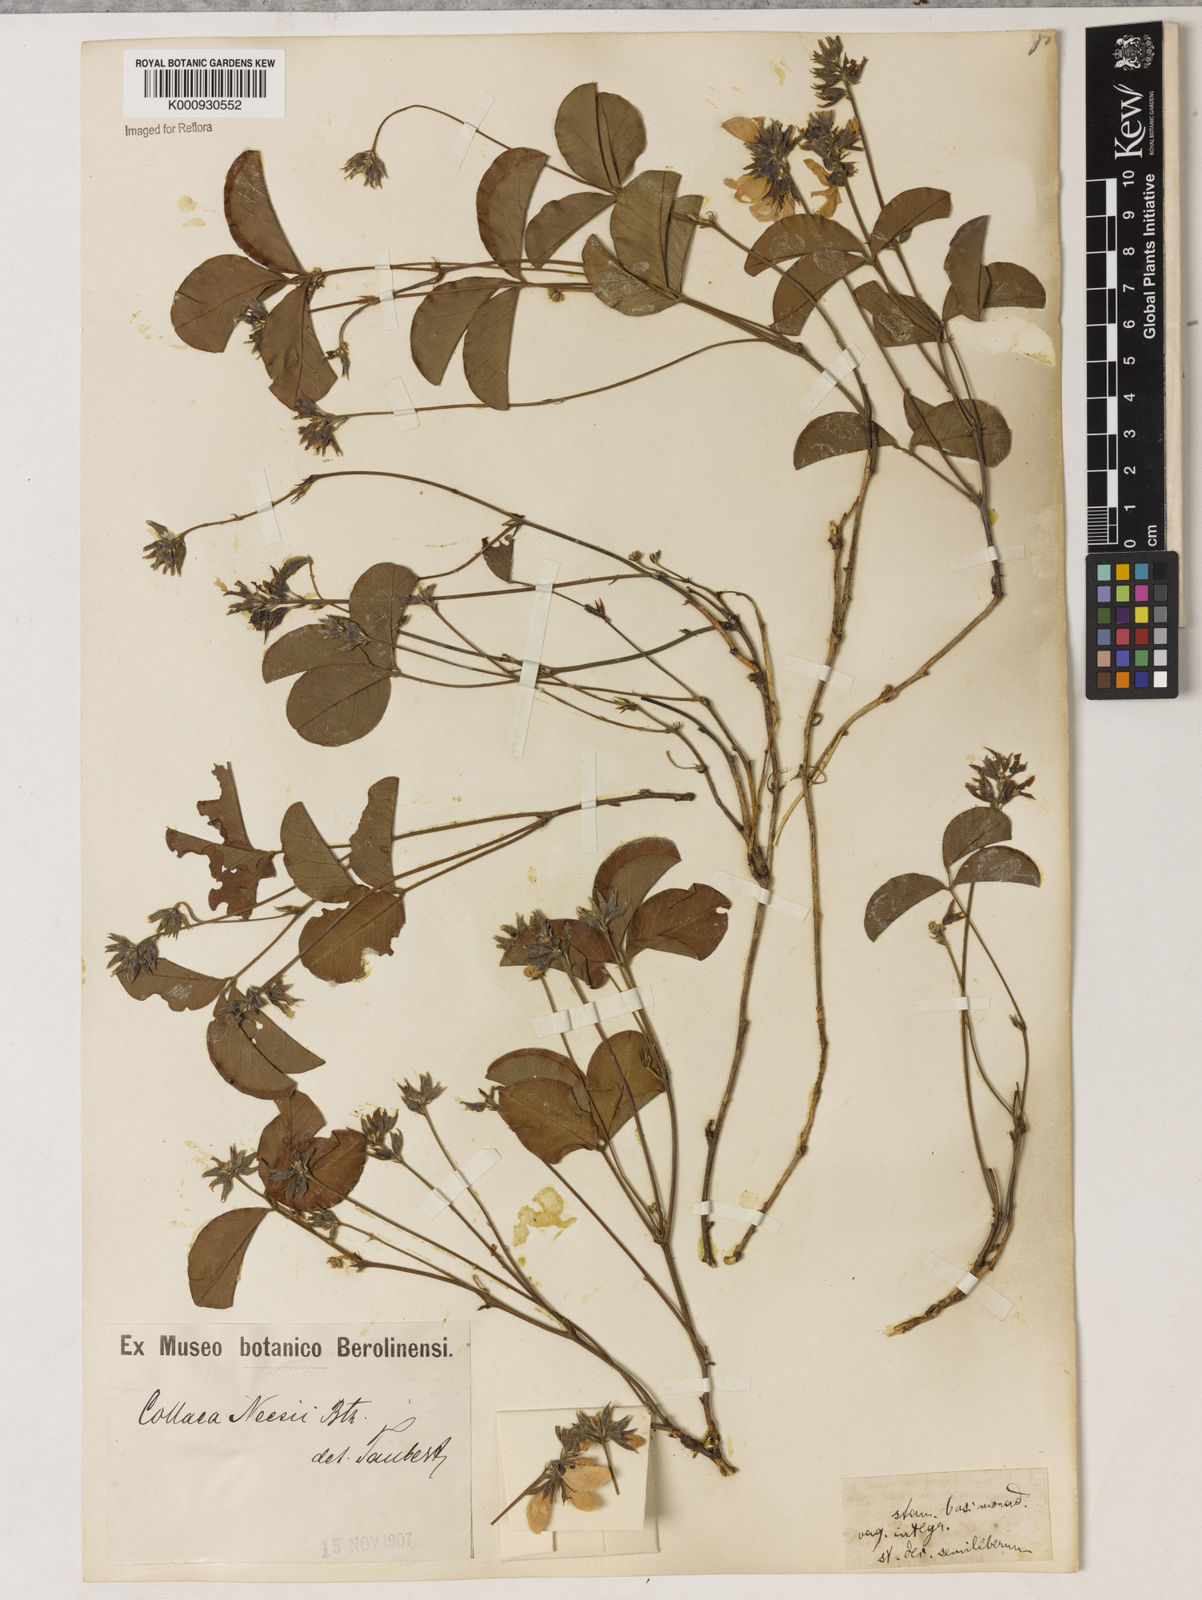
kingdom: Plantae
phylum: Tracheophyta
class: Magnoliopsida
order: Fabales
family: Fabaceae
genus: Betencourtia
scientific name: Betencourtia neesii
